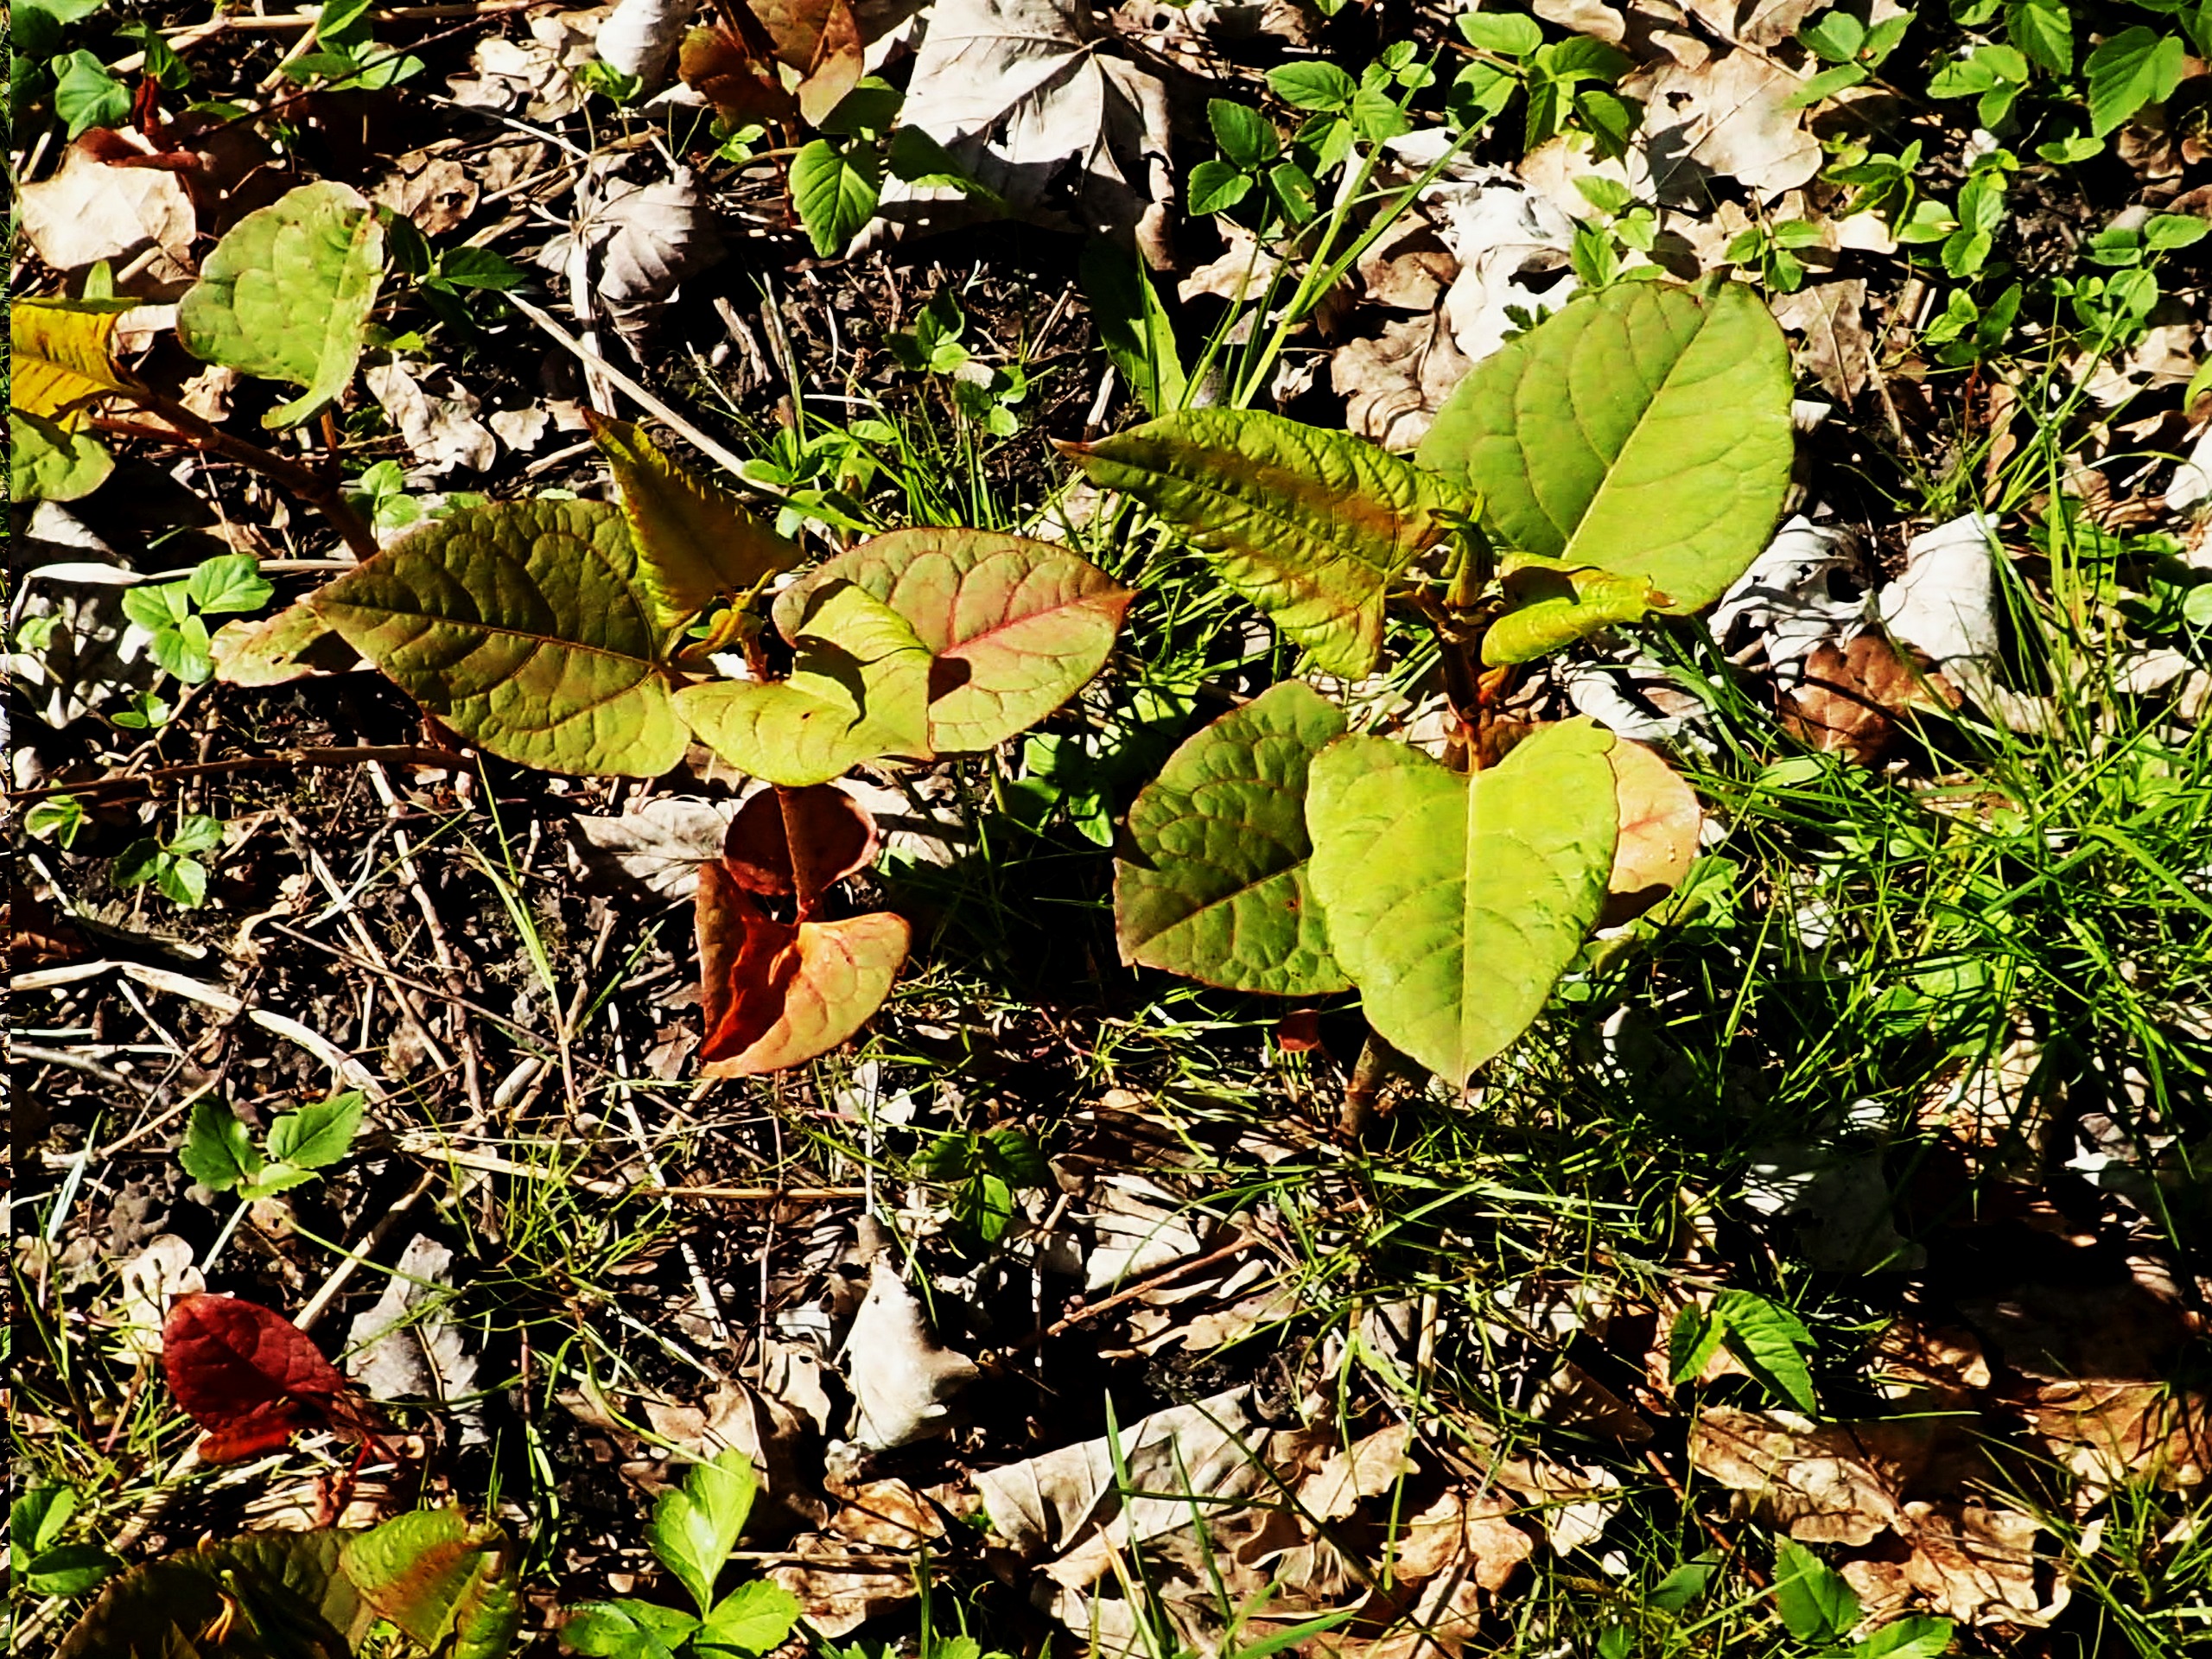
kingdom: Plantae
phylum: Tracheophyta
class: Magnoliopsida
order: Caryophyllales
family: Polygonaceae
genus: Reynoutria
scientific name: Reynoutria
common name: Pileurt (Reynoutria-slægten)
